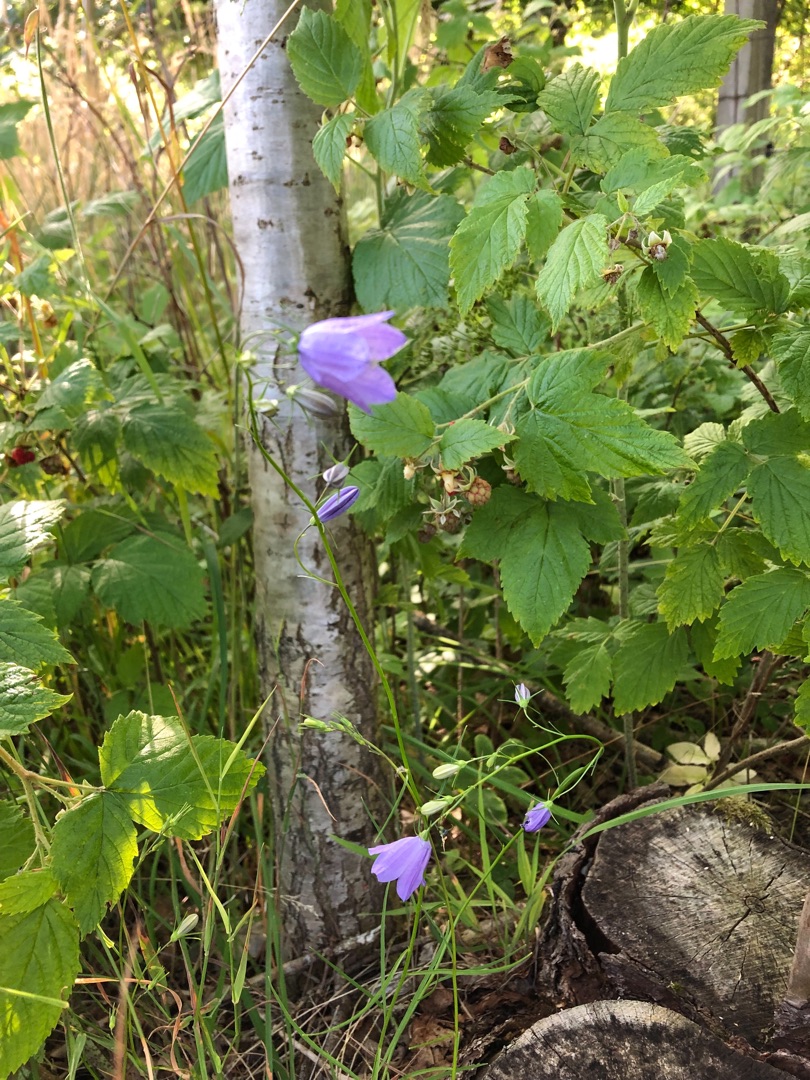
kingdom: Plantae
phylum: Tracheophyta
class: Magnoliopsida
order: Asterales
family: Campanulaceae
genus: Campanula
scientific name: Campanula rotundifolia
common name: Liden klokke
